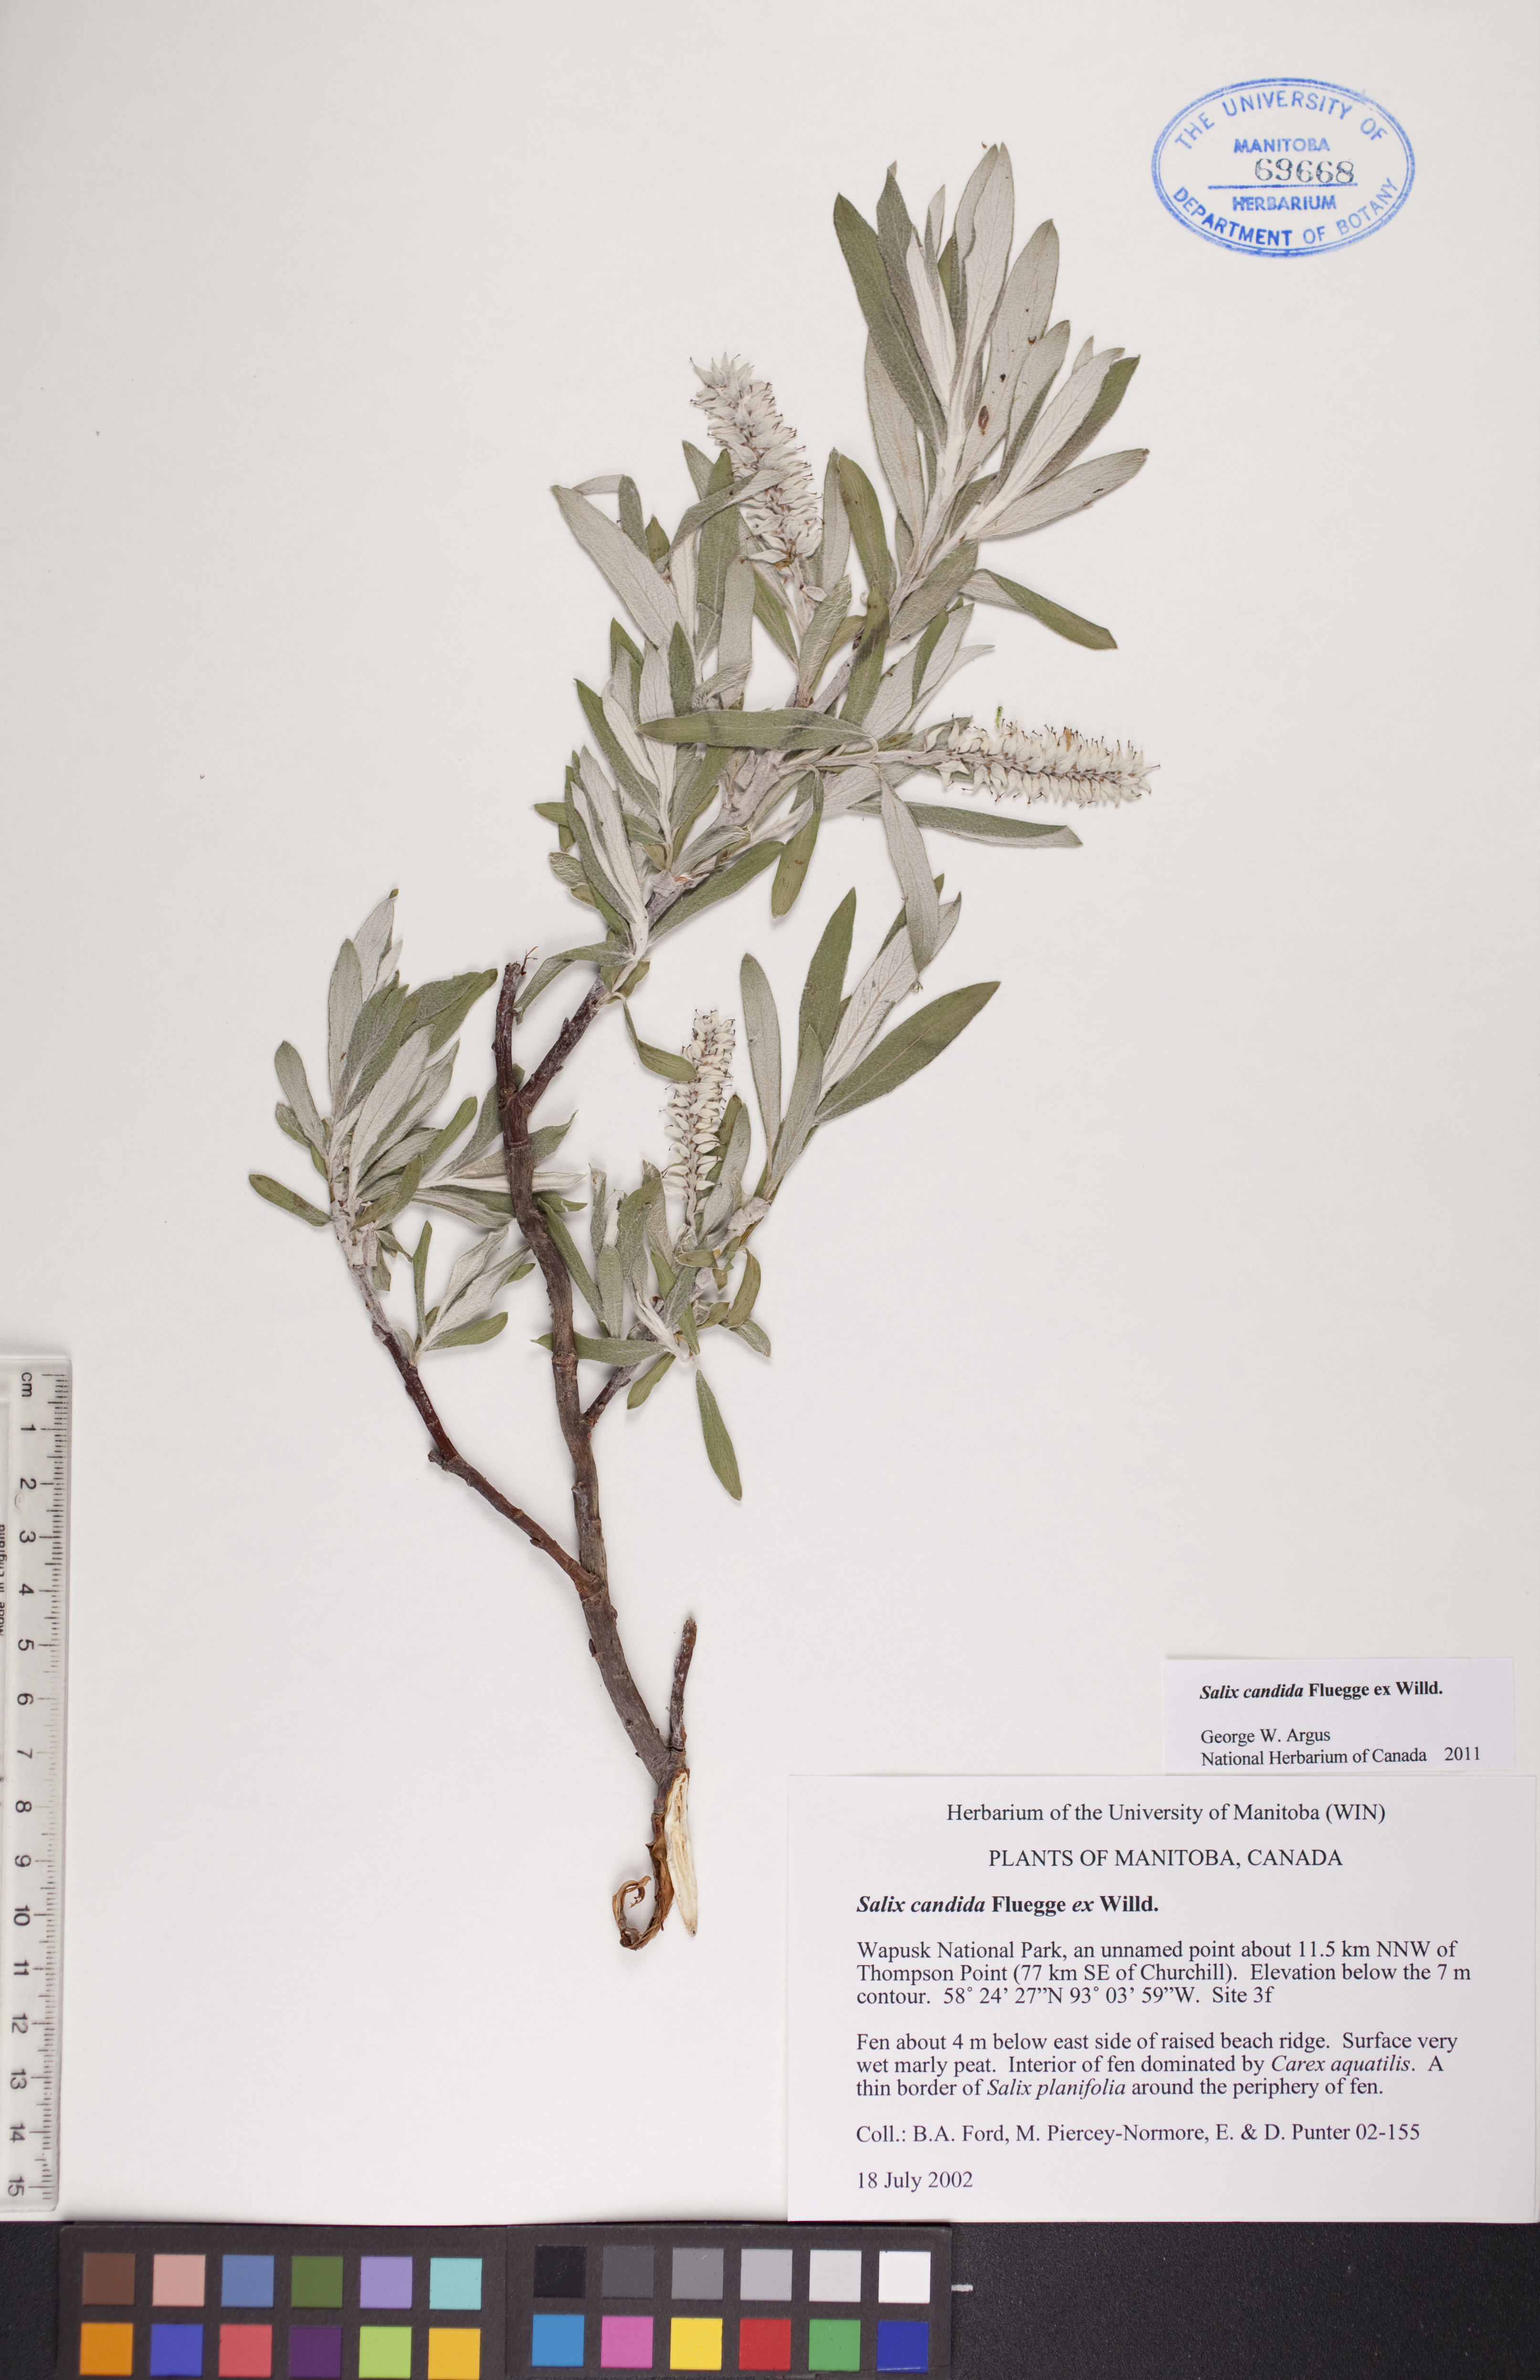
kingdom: Plantae
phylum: Tracheophyta
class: Magnoliopsida
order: Malpighiales
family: Salicaceae
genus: Salix
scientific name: Salix candida
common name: Hoary willow
